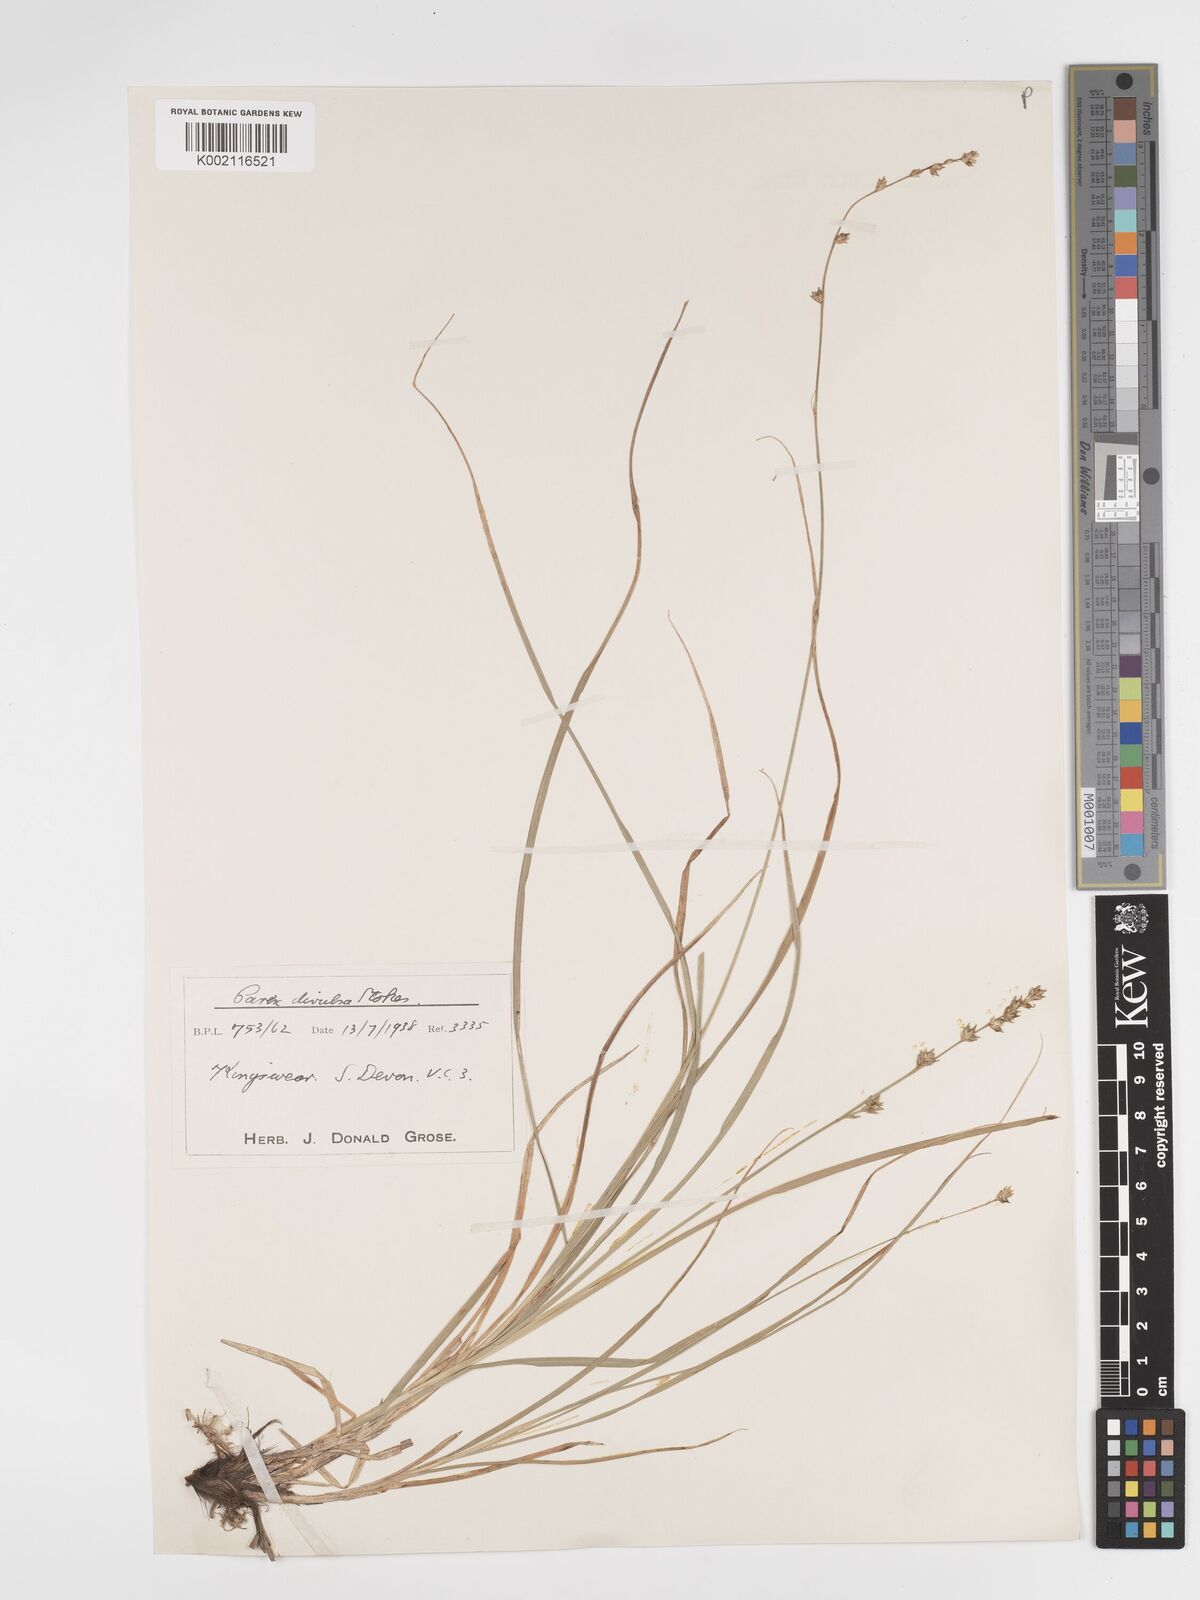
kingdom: Plantae
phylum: Tracheophyta
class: Liliopsida
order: Poales
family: Cyperaceae
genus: Carex
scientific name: Carex divulsa
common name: Grassland sedge
